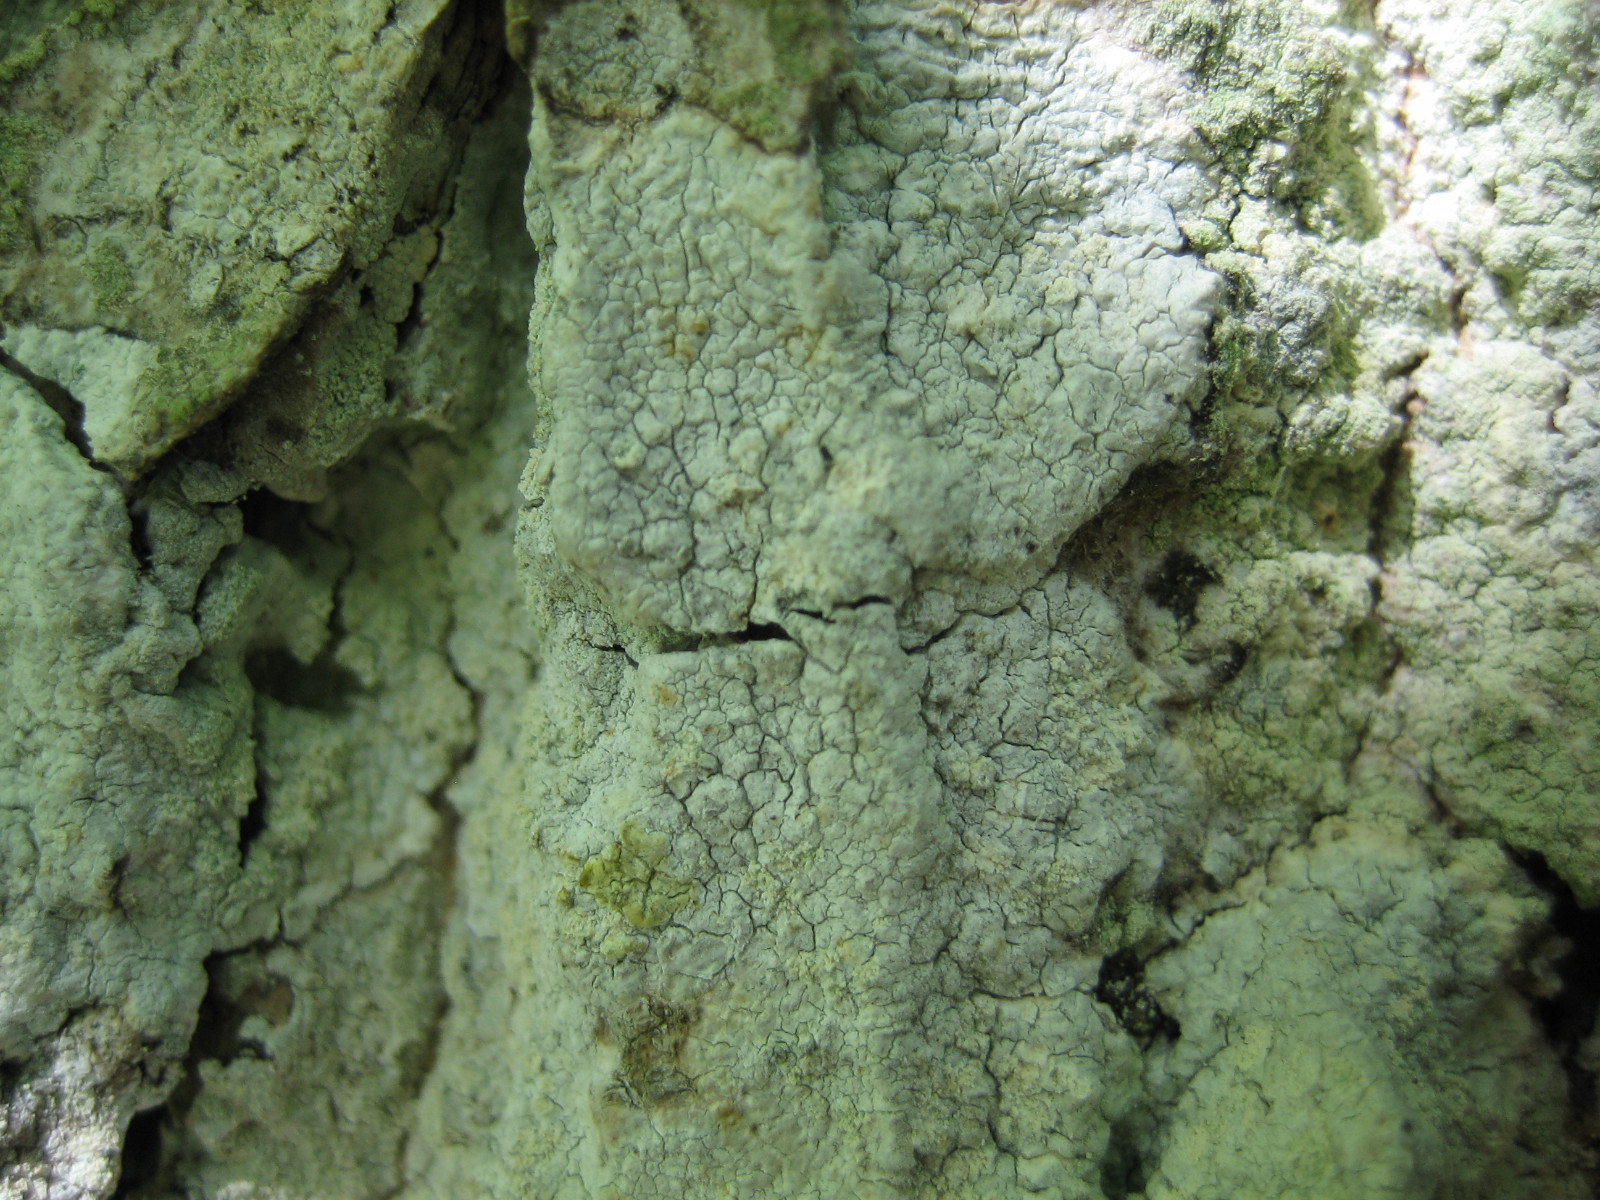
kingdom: Fungi
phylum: Ascomycota
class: Lecanoromycetes
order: Pertusariales
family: Varicellariaceae
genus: Varicellaria
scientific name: Varicellaria hemisphaerica
